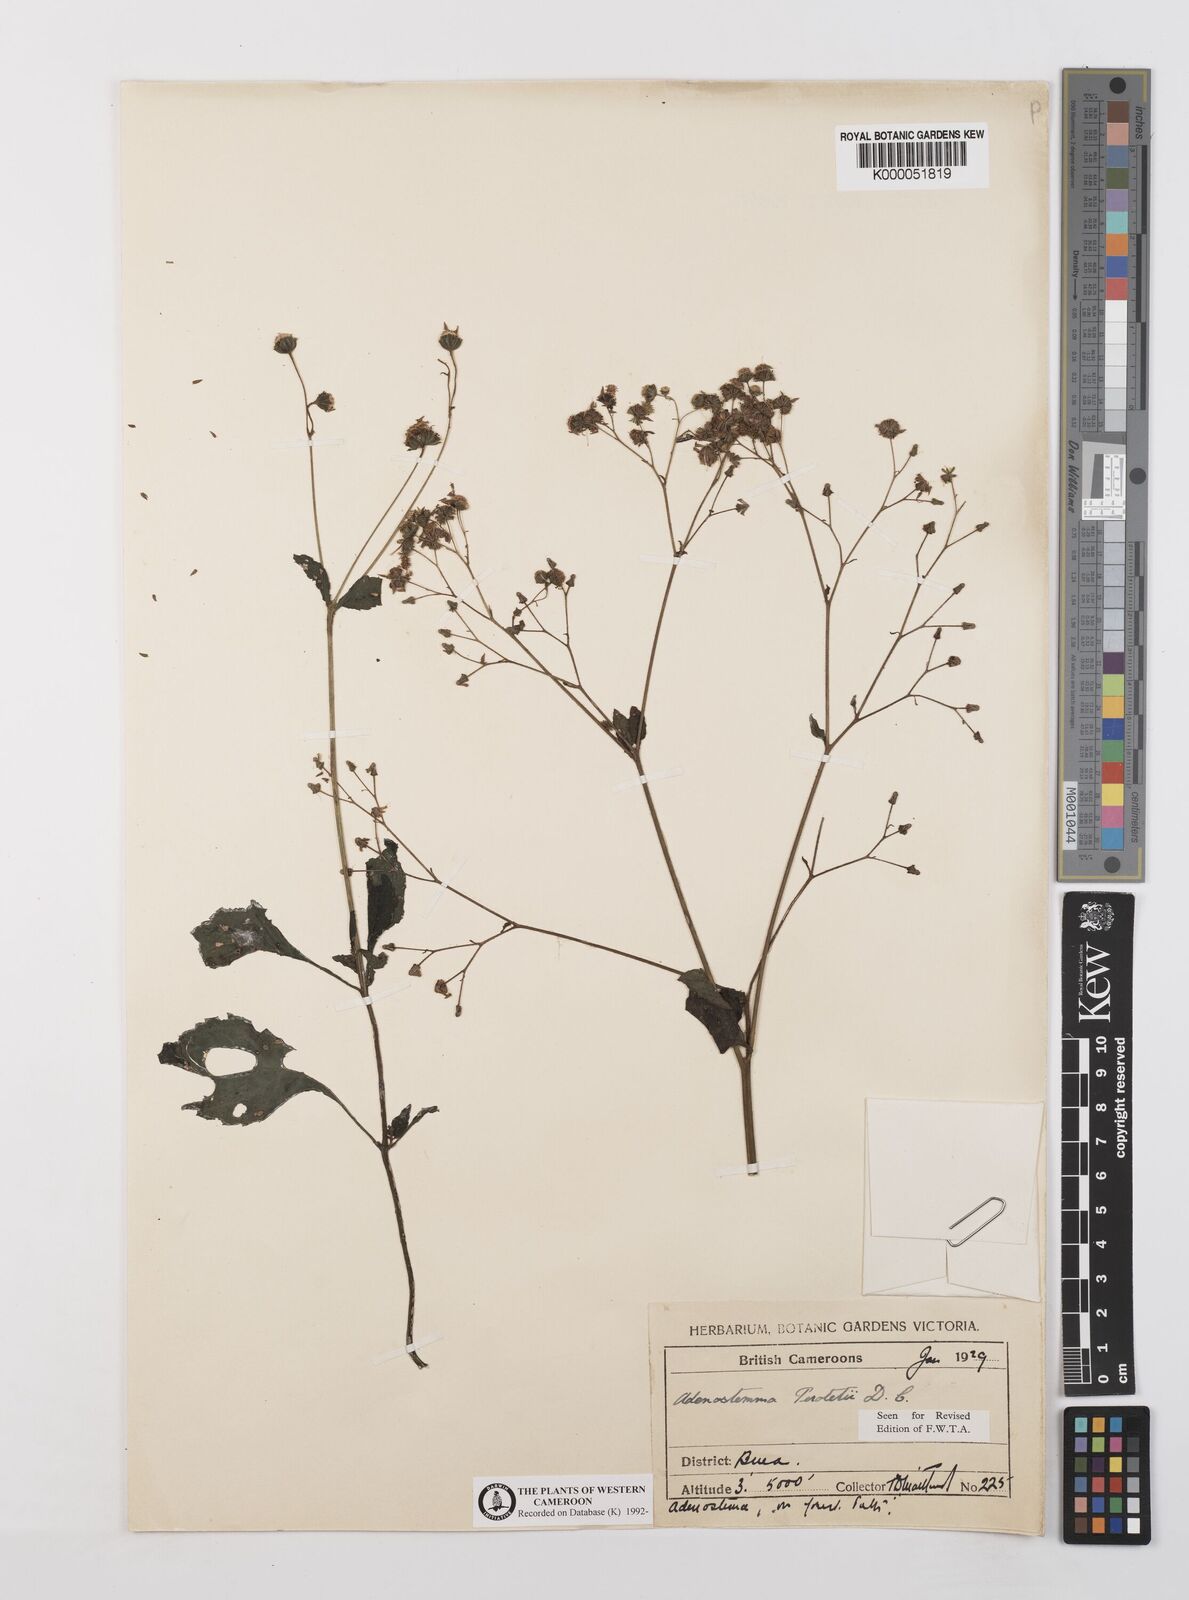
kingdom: Plantae
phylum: Tracheophyta
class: Magnoliopsida
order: Asterales
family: Asteraceae
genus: Adenostemma
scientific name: Adenostemma viscosum
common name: Dungweed
